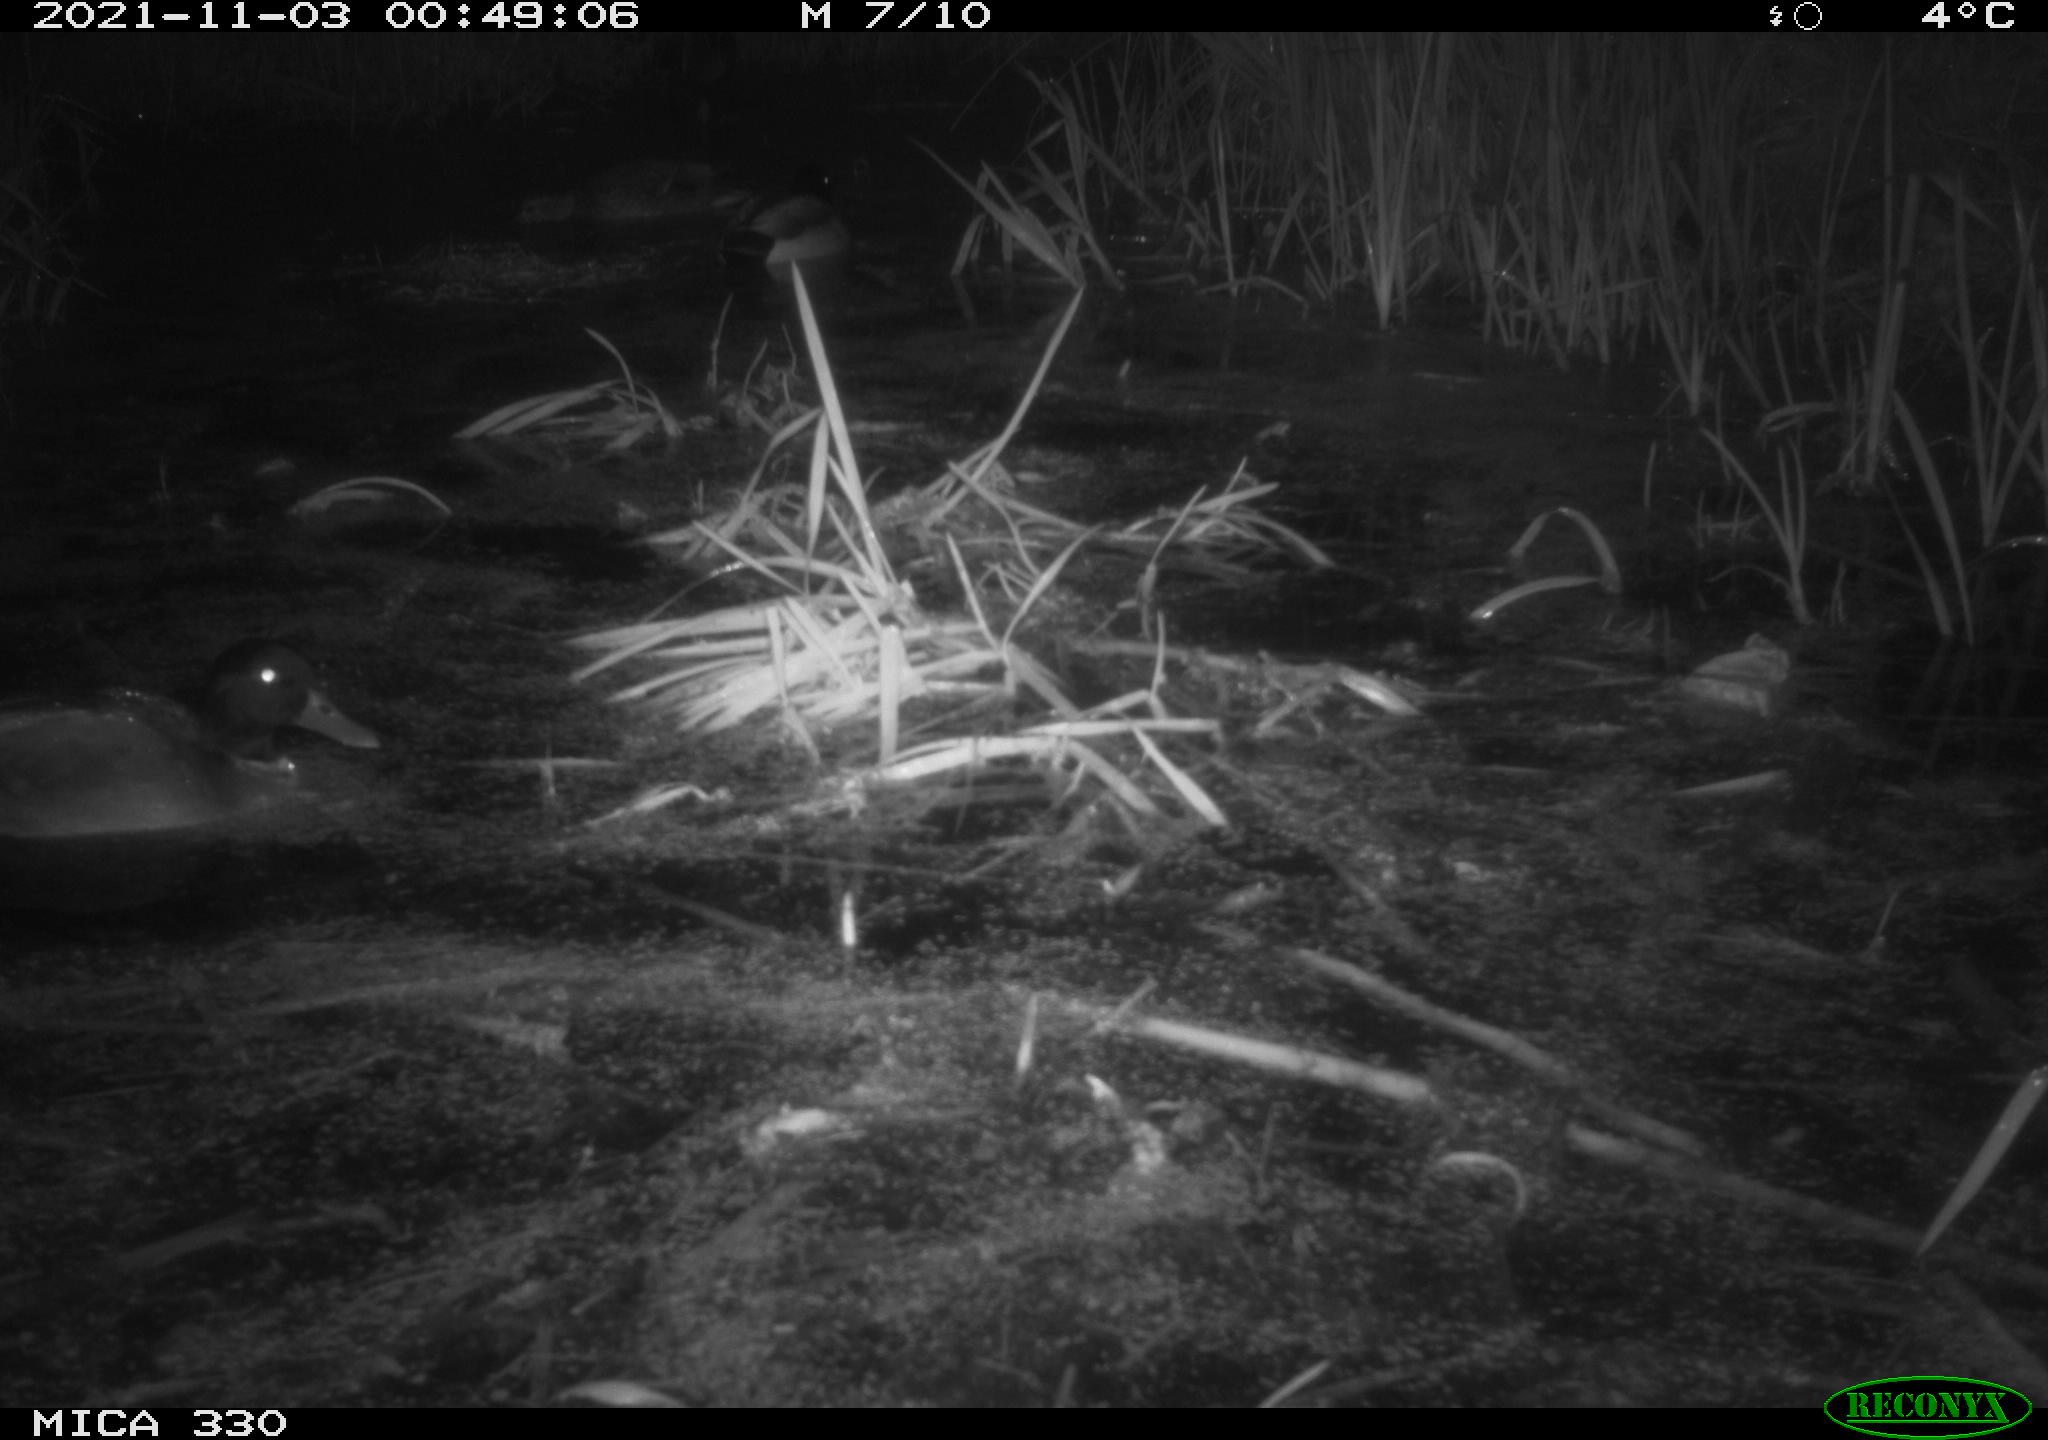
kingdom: Animalia
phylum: Chordata
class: Aves
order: Anseriformes
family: Anatidae
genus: Anas
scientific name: Anas platyrhynchos
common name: Mallard
